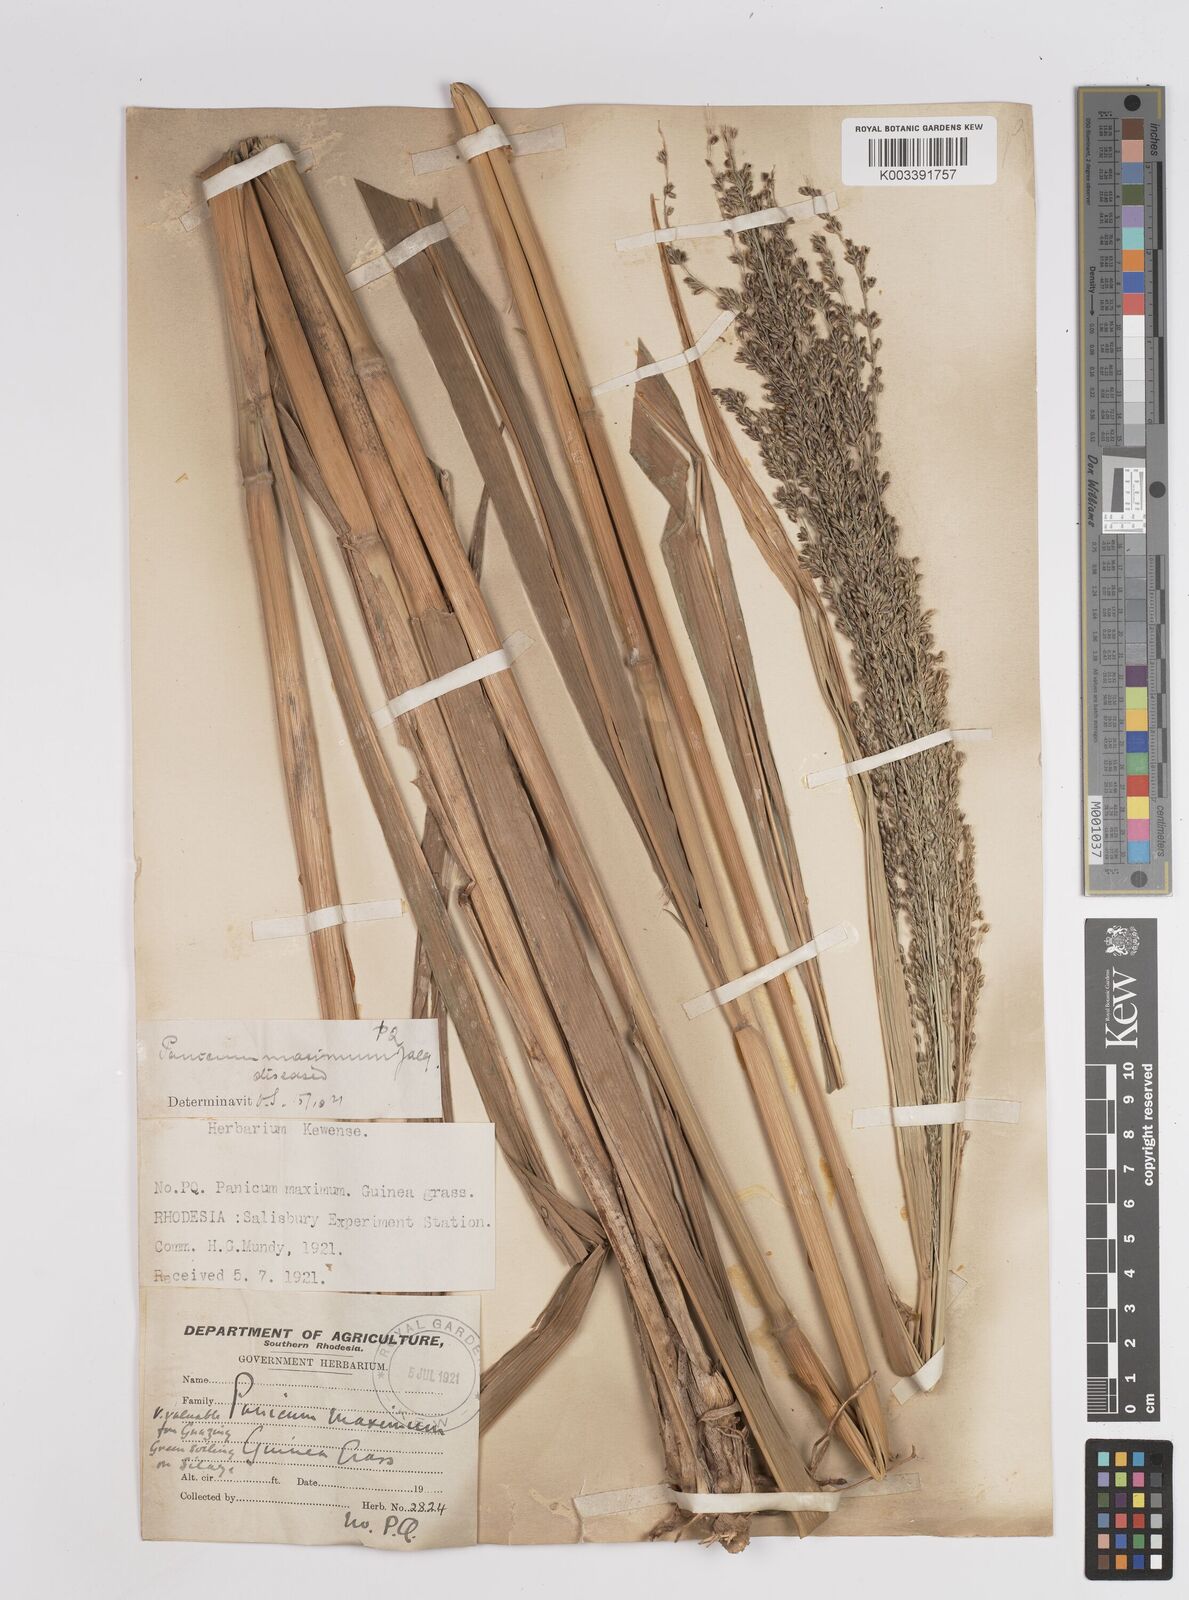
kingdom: Plantae
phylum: Tracheophyta
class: Liliopsida
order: Poales
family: Poaceae
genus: Megathyrsus
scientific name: Megathyrsus maximus
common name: Guineagrass
